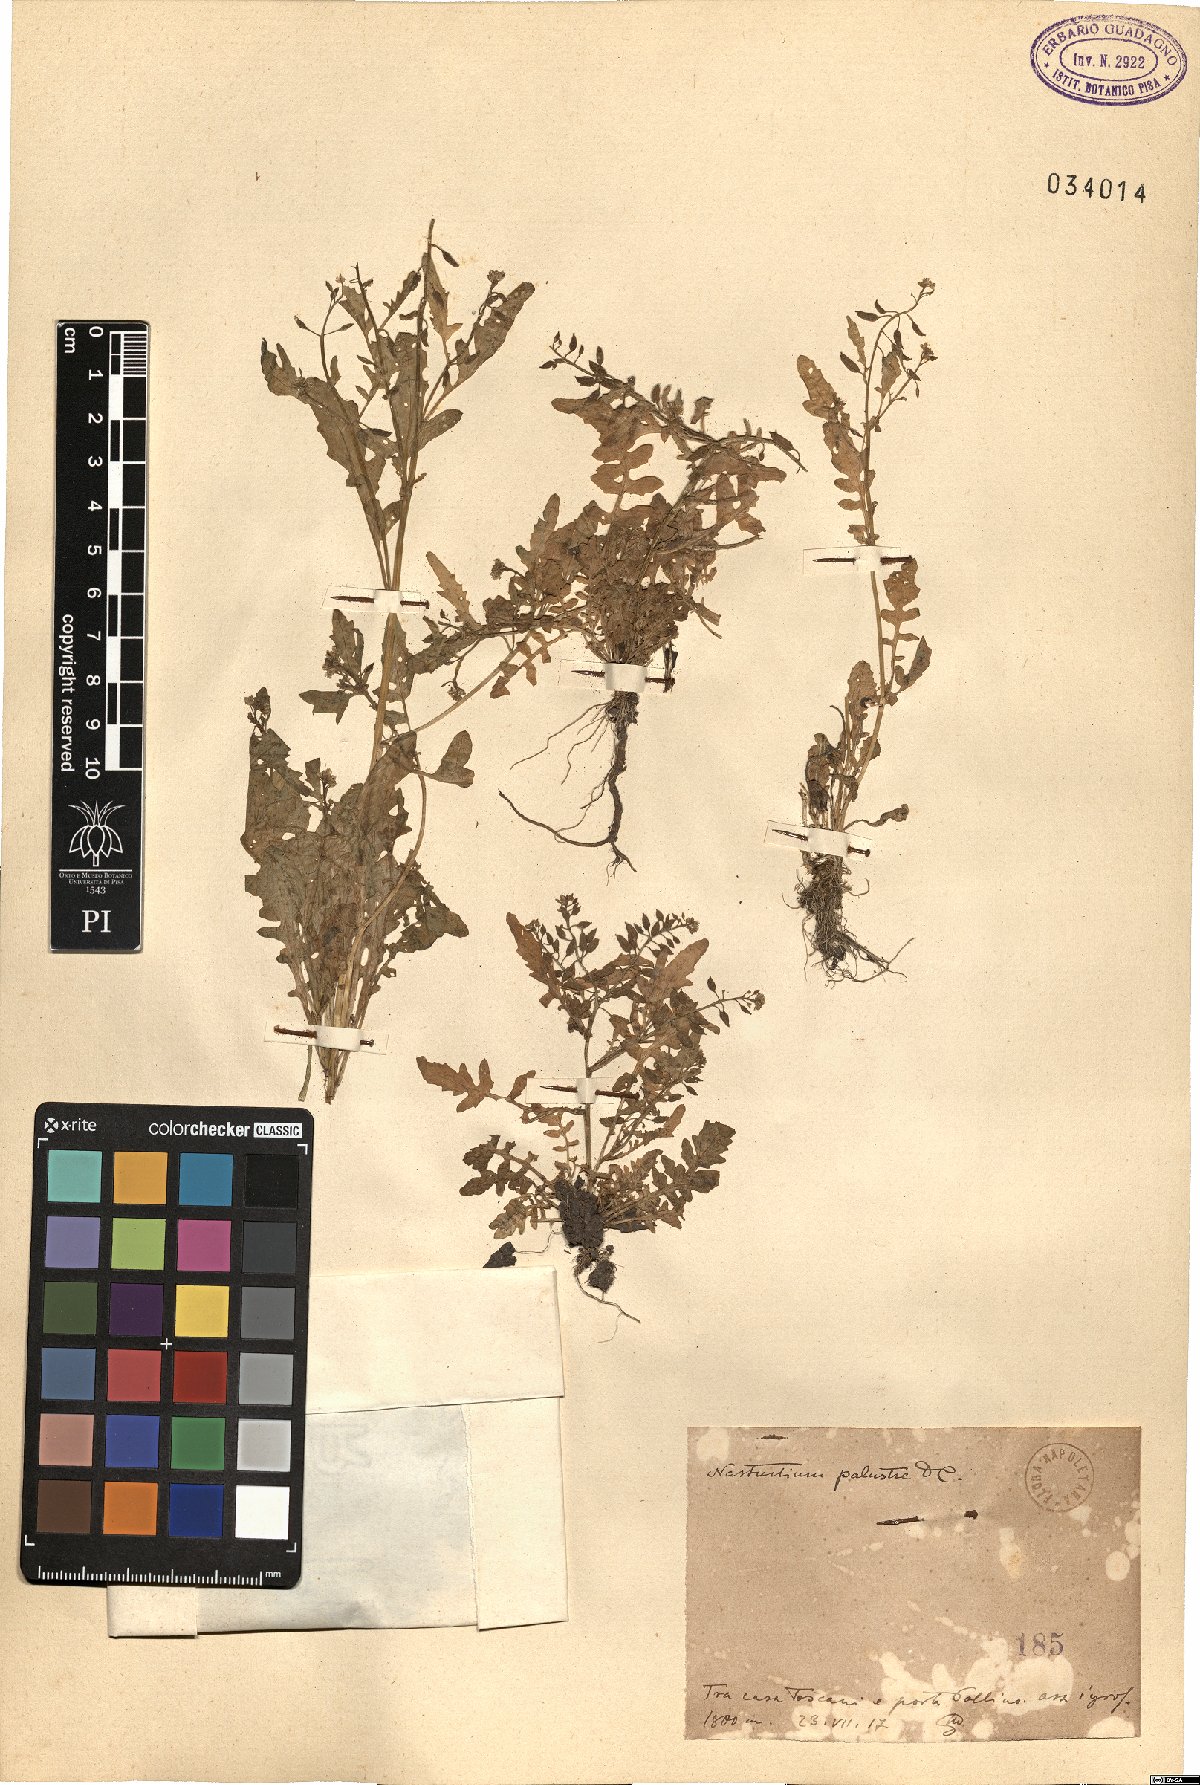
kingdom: Plantae
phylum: Tracheophyta
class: Magnoliopsida
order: Brassicales
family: Brassicaceae
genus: Rorippa
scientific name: Rorippa palustris
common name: Marsh yellow-cress
